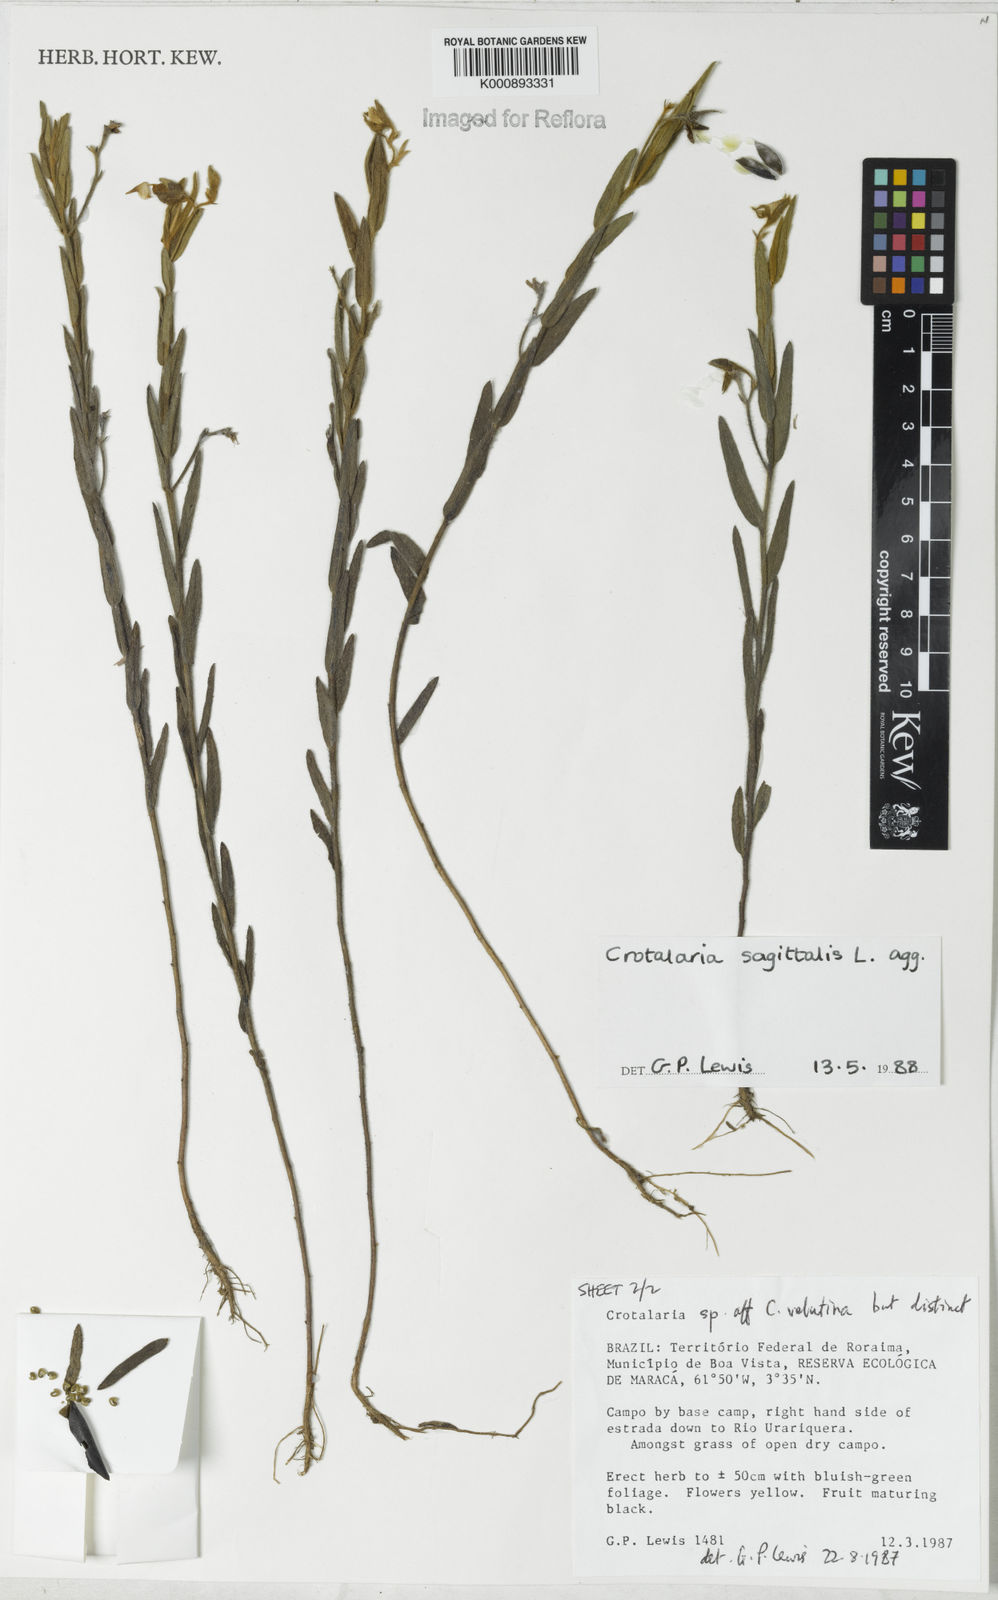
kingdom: Plantae
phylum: Tracheophyta
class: Magnoliopsida
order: Fabales
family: Fabaceae
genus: Crotalaria
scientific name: Crotalaria sagittalis
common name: Arrowhead rattlebox
